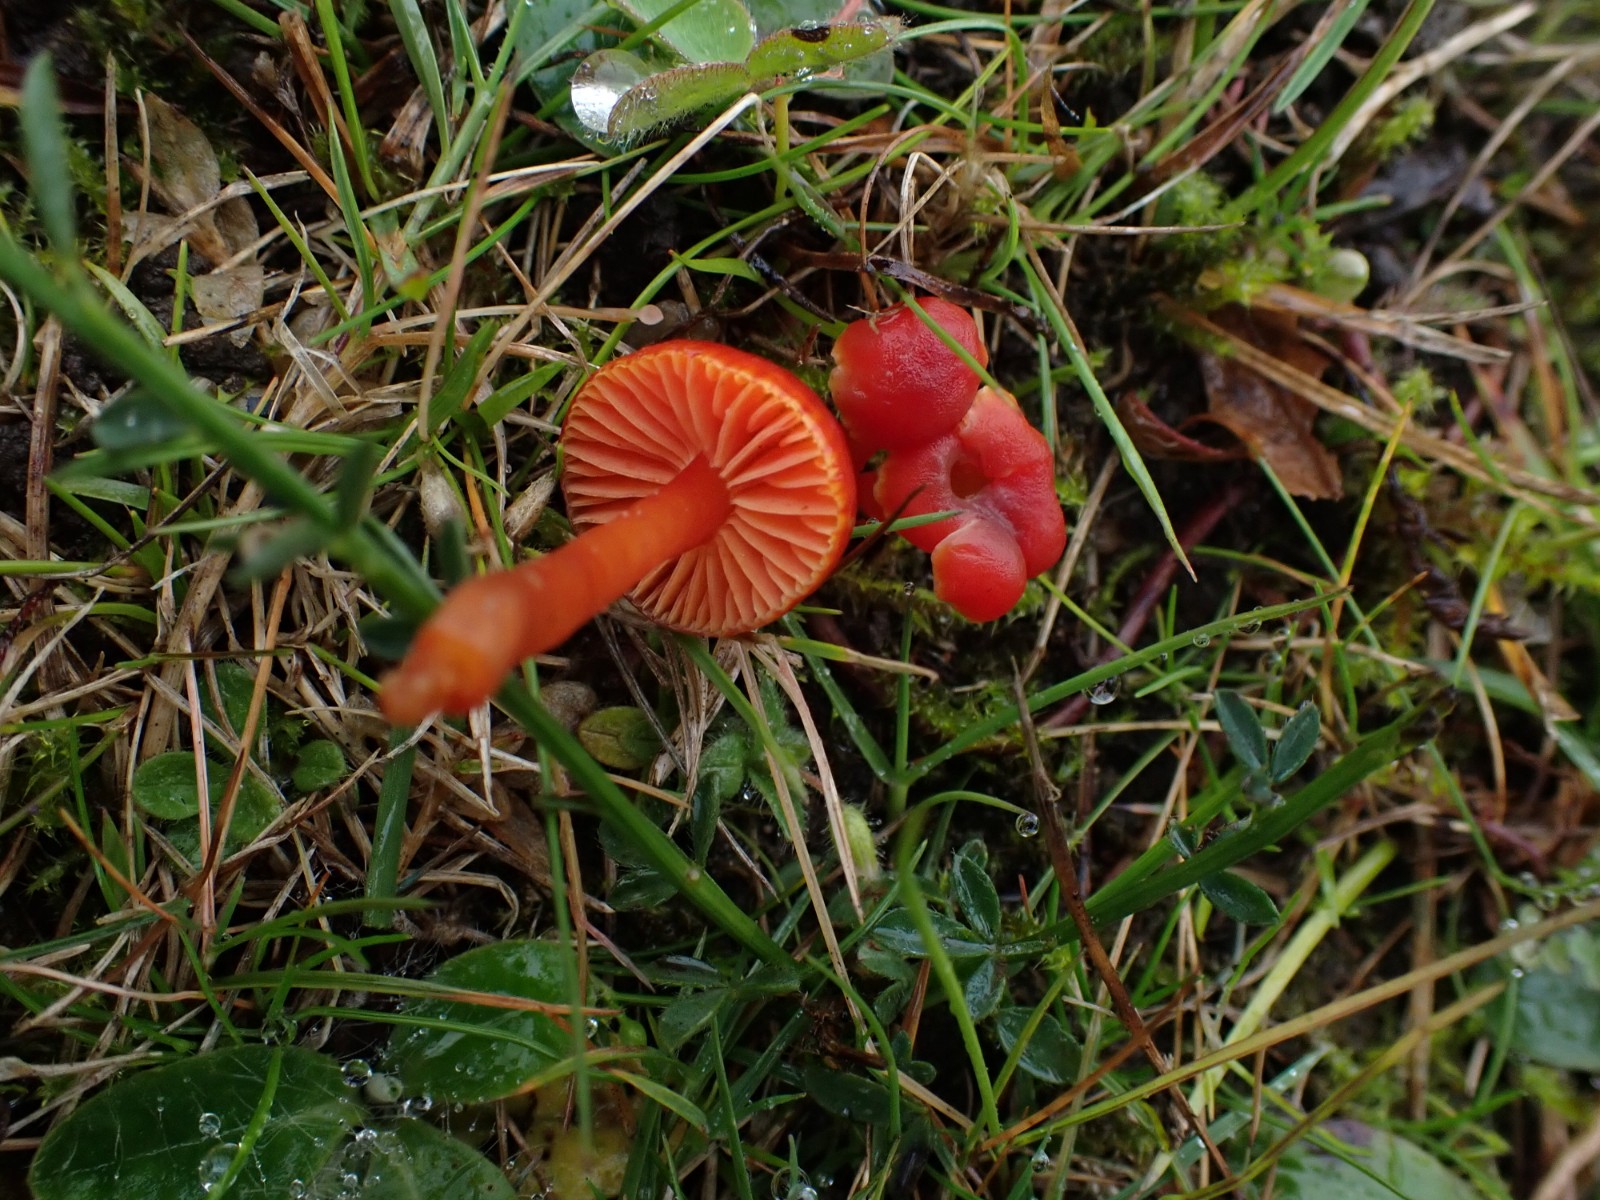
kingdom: Fungi
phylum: Basidiomycota
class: Agaricomycetes
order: Agaricales
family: Hygrophoraceae
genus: Hygrocybe
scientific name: Hygrocybe phaeococcinea
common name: sortdugget vokshat
